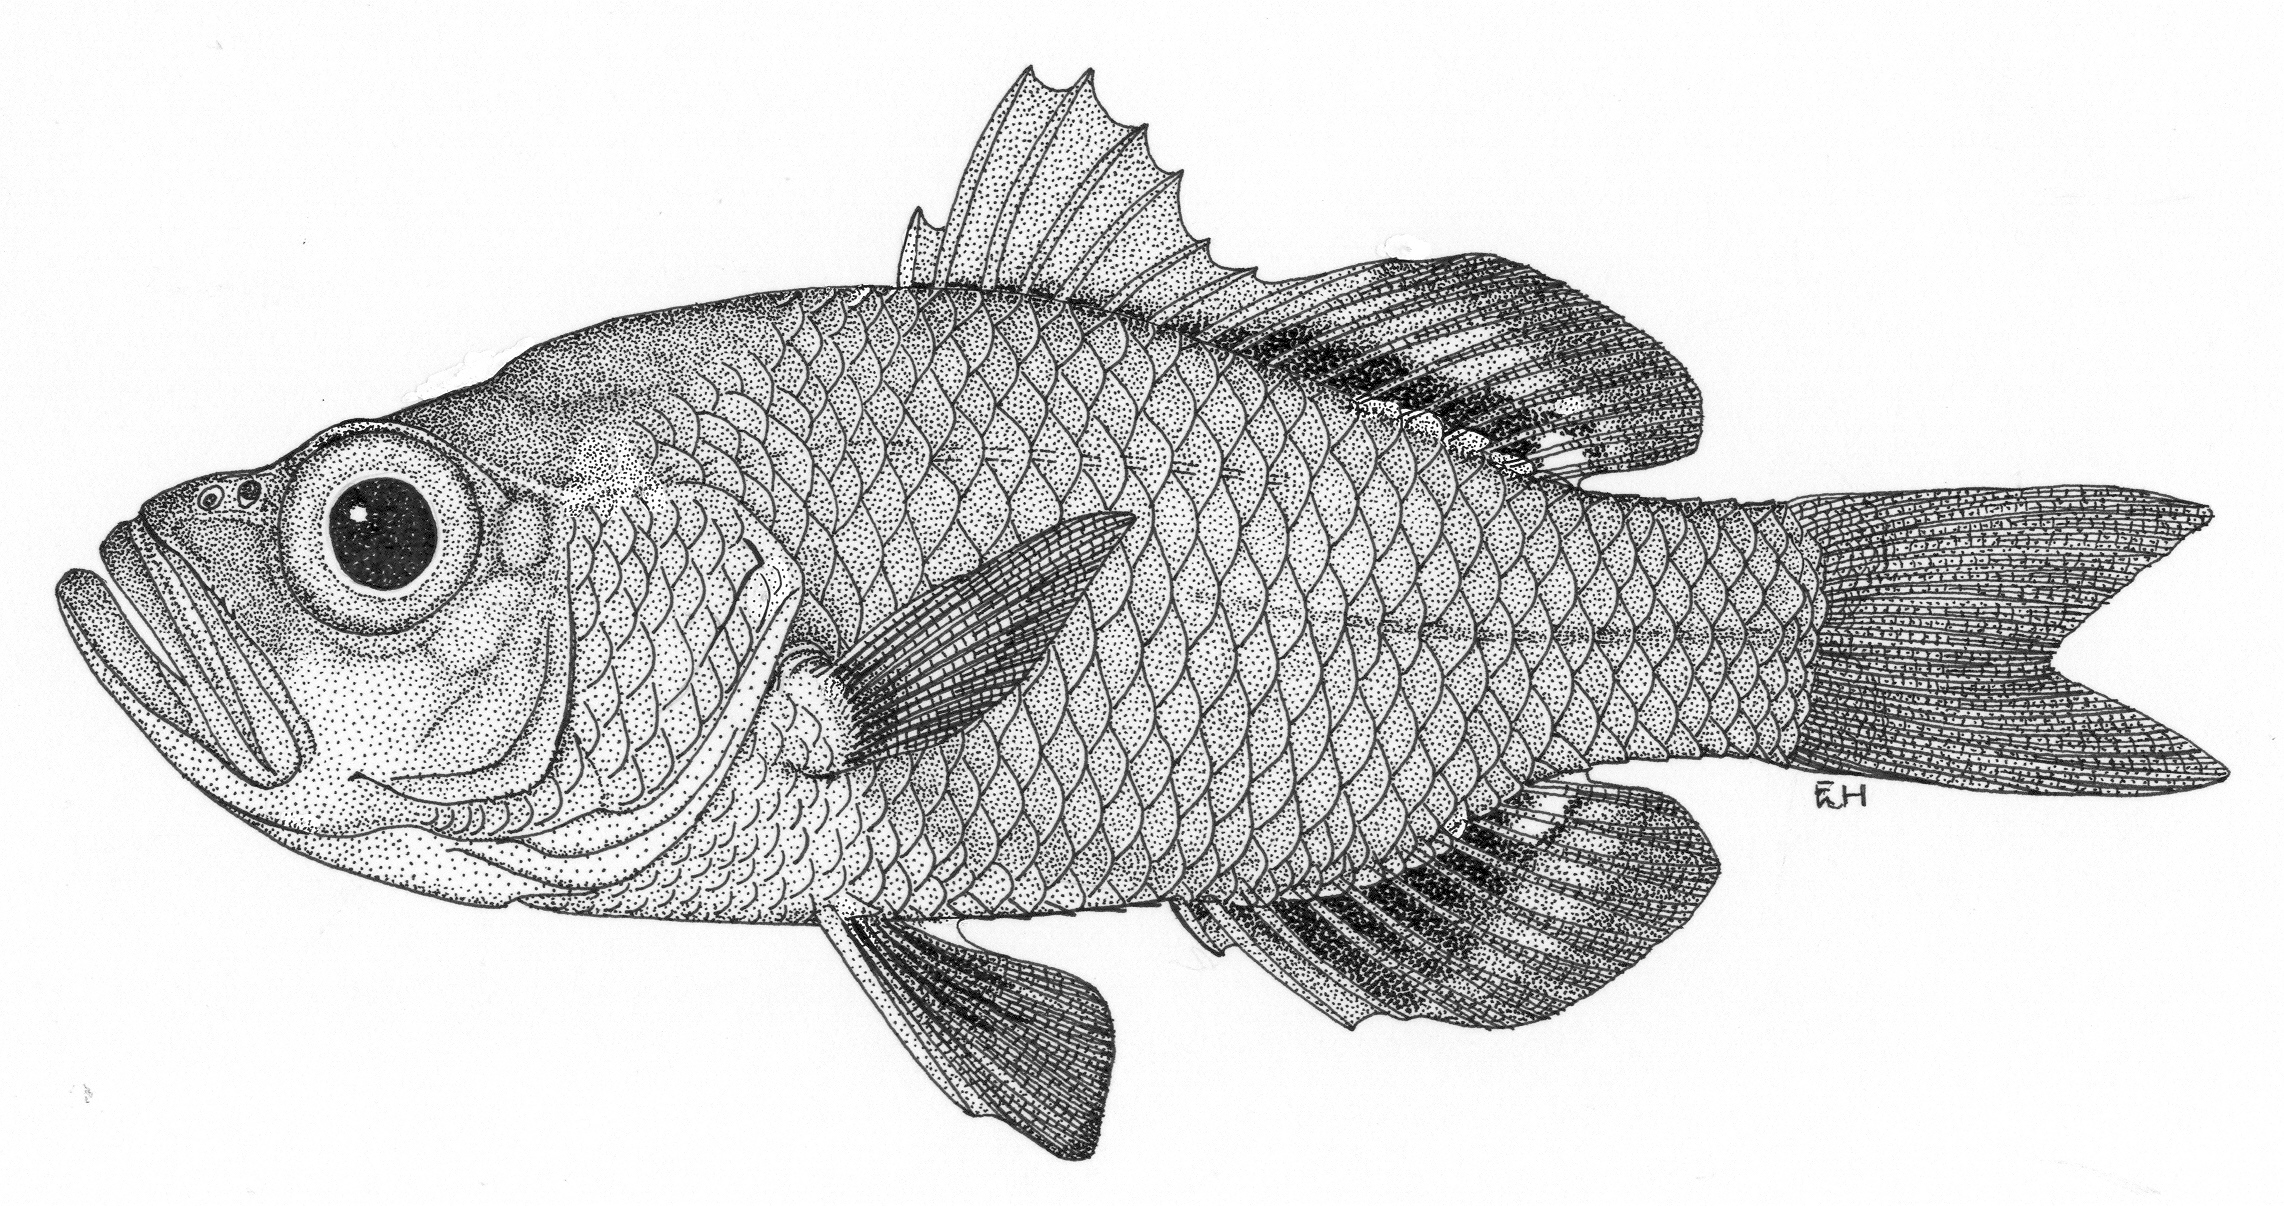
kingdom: Animalia
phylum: Chordata
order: Perciformes
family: Ambassidae
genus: Ambassis
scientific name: Ambassis fontoynonti
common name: Dusky glass perch
